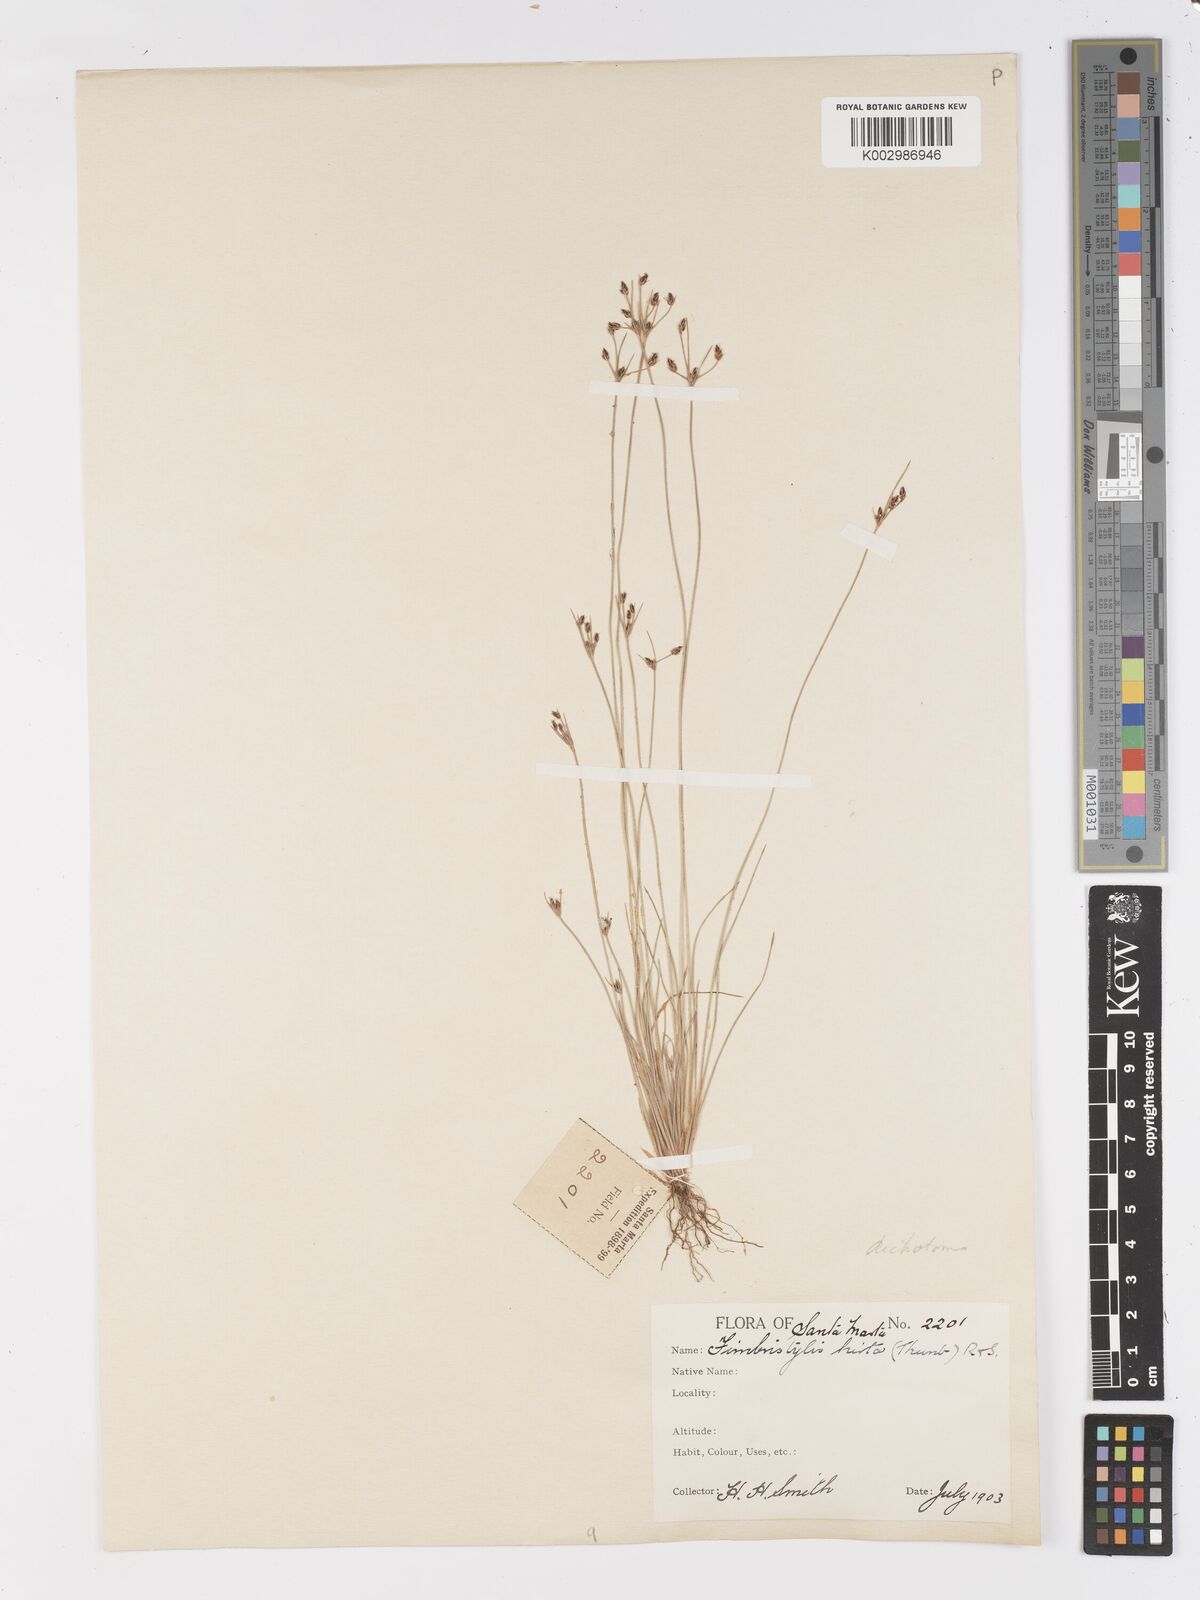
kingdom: Plantae
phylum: Tracheophyta
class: Liliopsida
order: Poales
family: Cyperaceae
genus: Fimbristylis
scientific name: Fimbristylis dichotoma
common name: Forked fimbry
